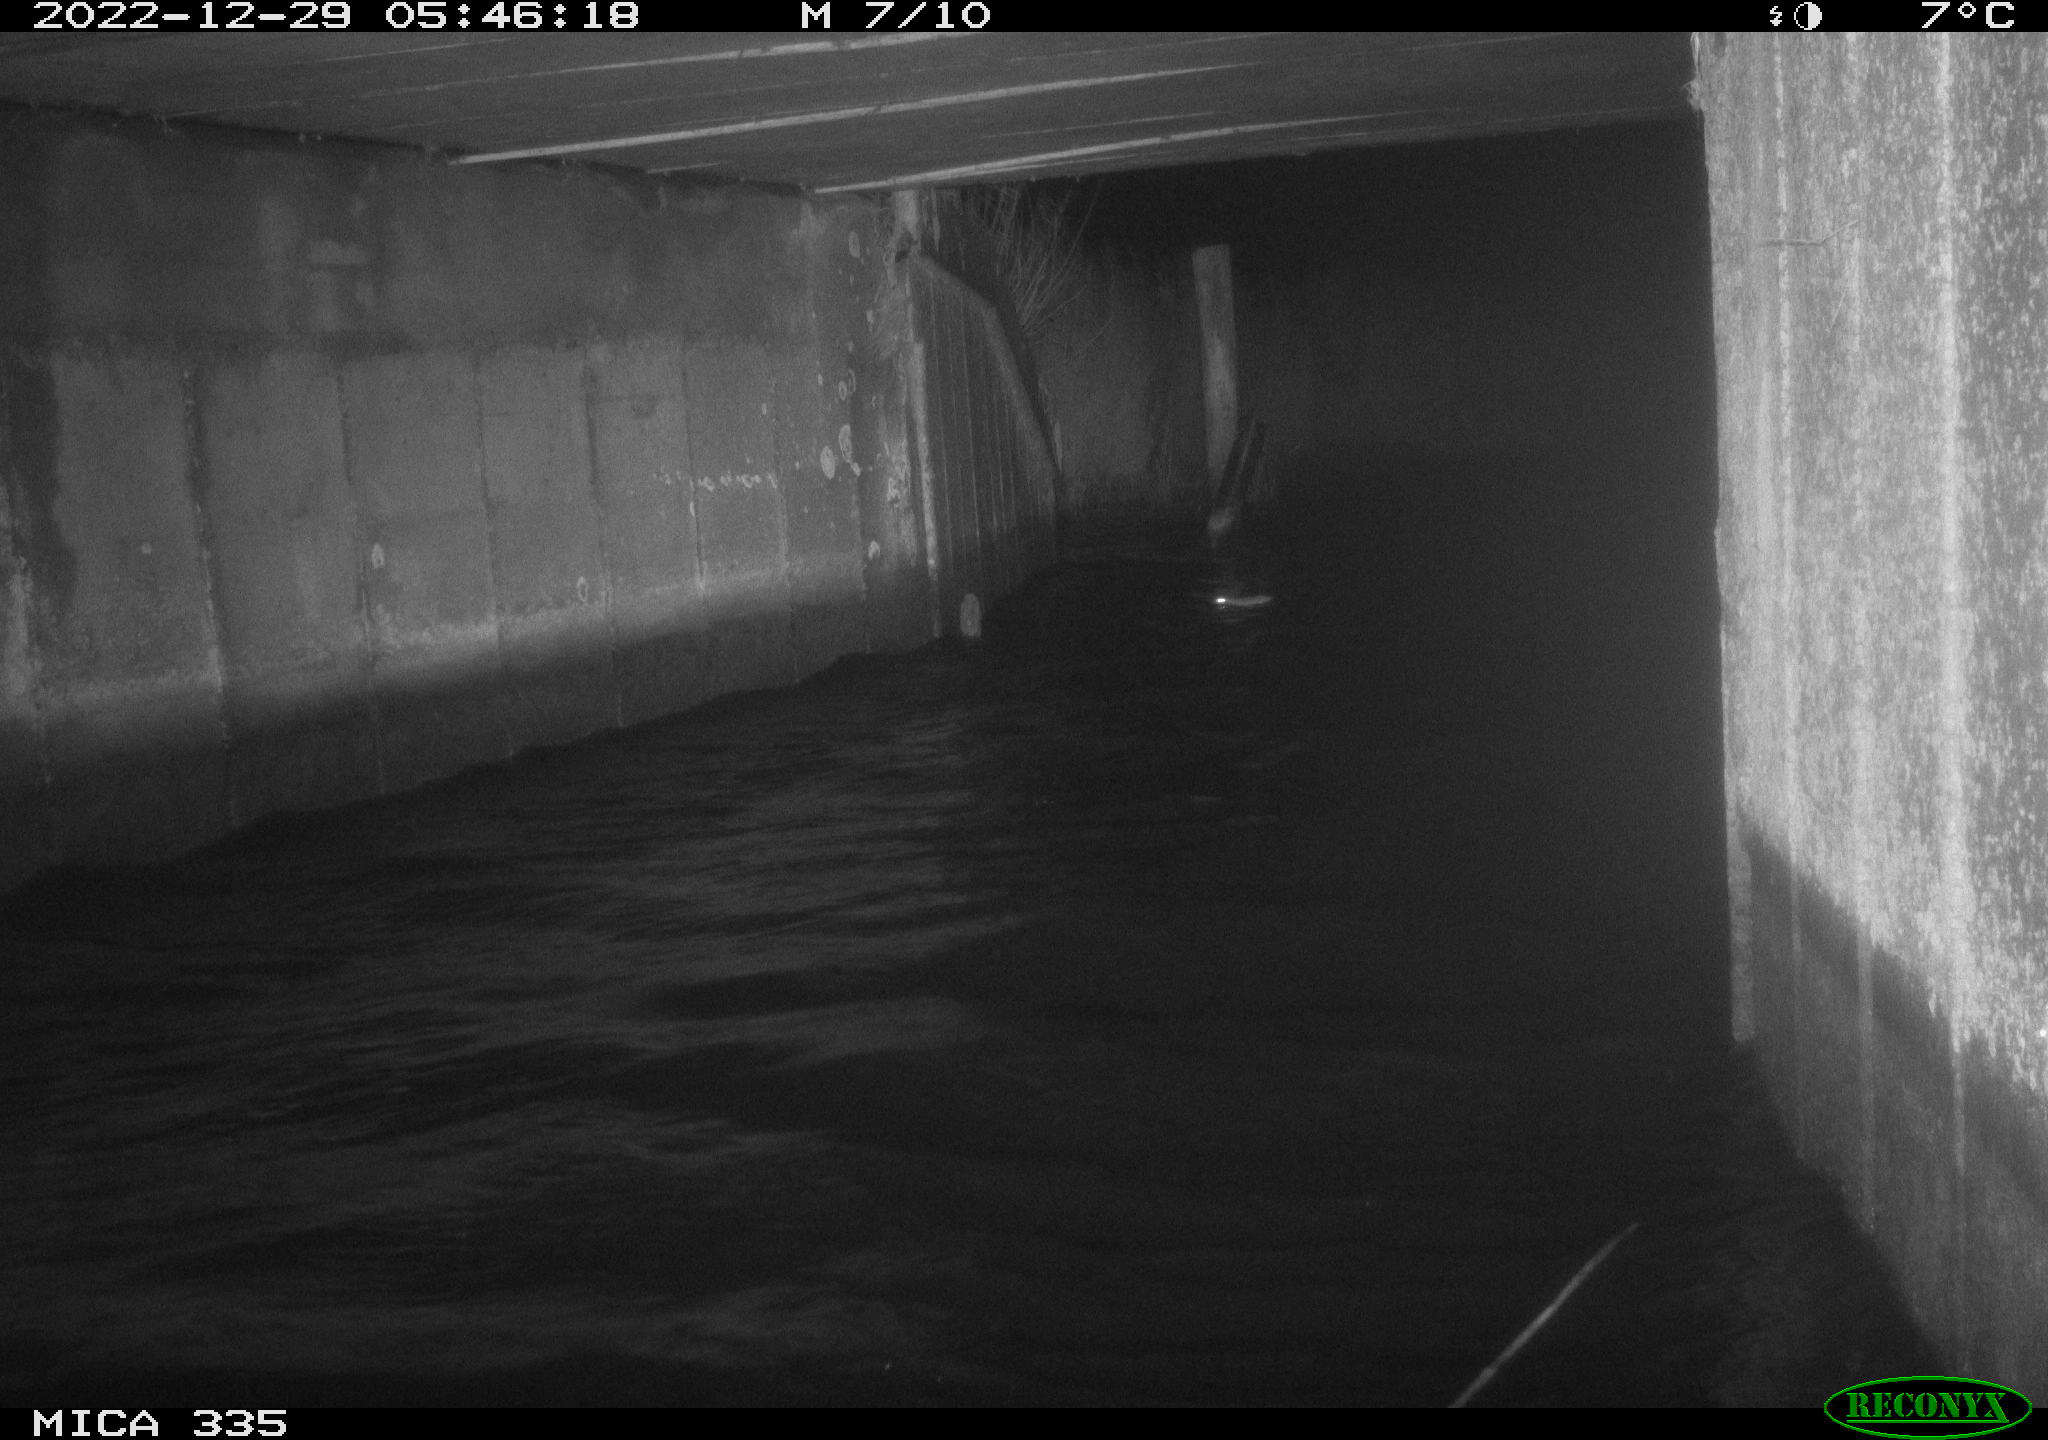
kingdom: Animalia
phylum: Chordata
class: Mammalia
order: Rodentia
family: Muridae
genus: Rattus
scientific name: Rattus norvegicus
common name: Brown rat
